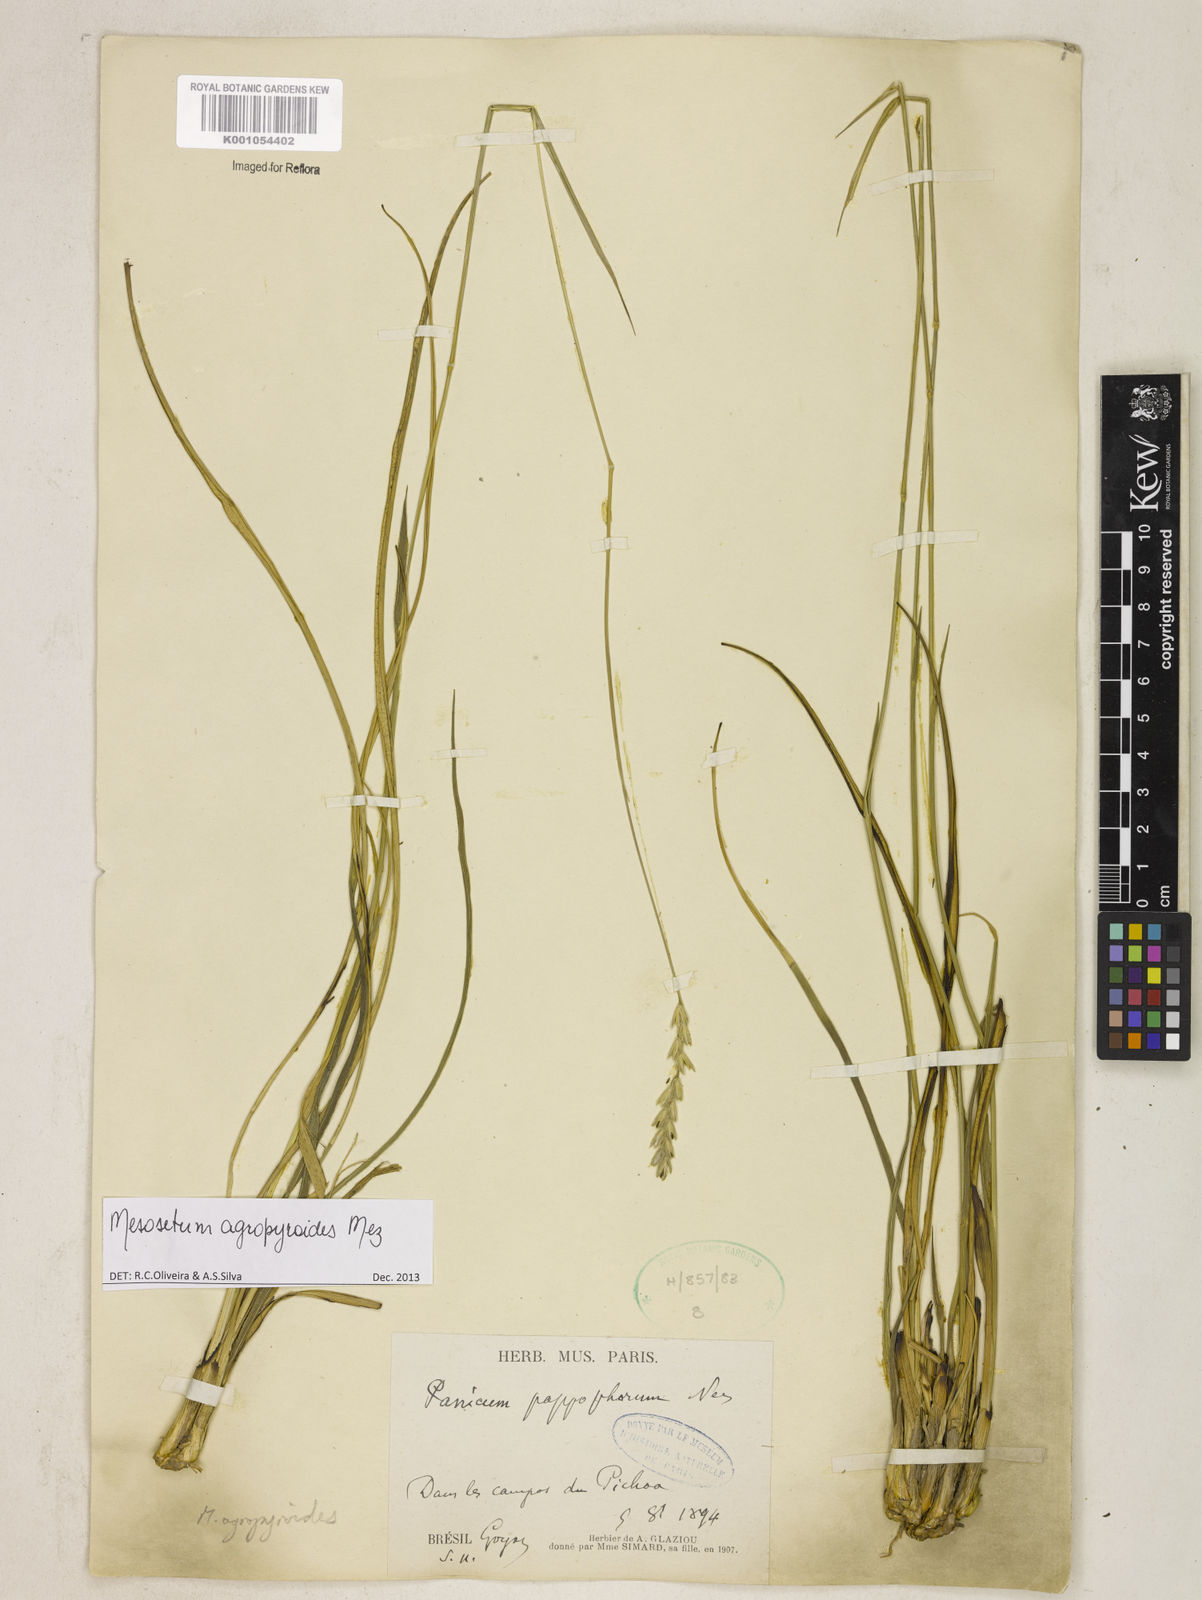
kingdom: Plantae
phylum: Tracheophyta
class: Liliopsida
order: Poales
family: Poaceae
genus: Mesosetum
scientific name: Mesosetum agropyroides
